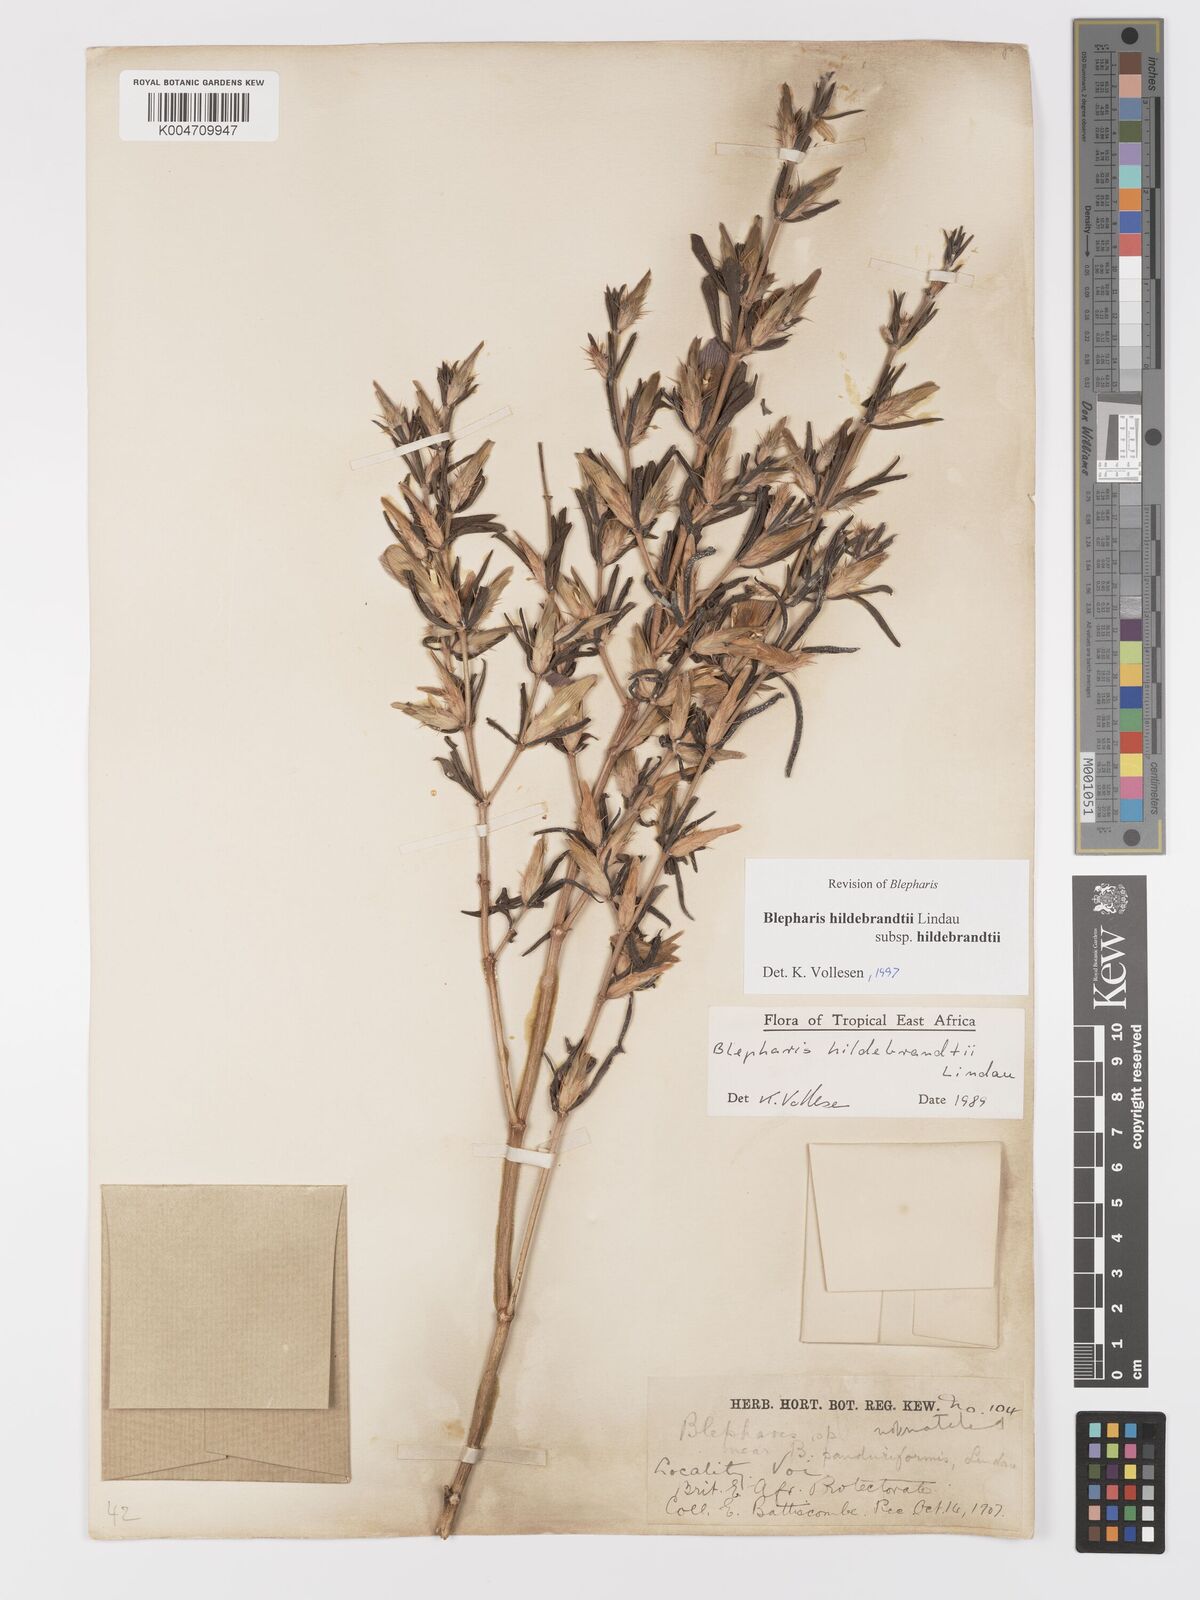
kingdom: Plantae
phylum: Tracheophyta
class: Magnoliopsida
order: Lamiales
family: Acanthaceae
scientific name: Acanthaceae
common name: Acanthaceae
